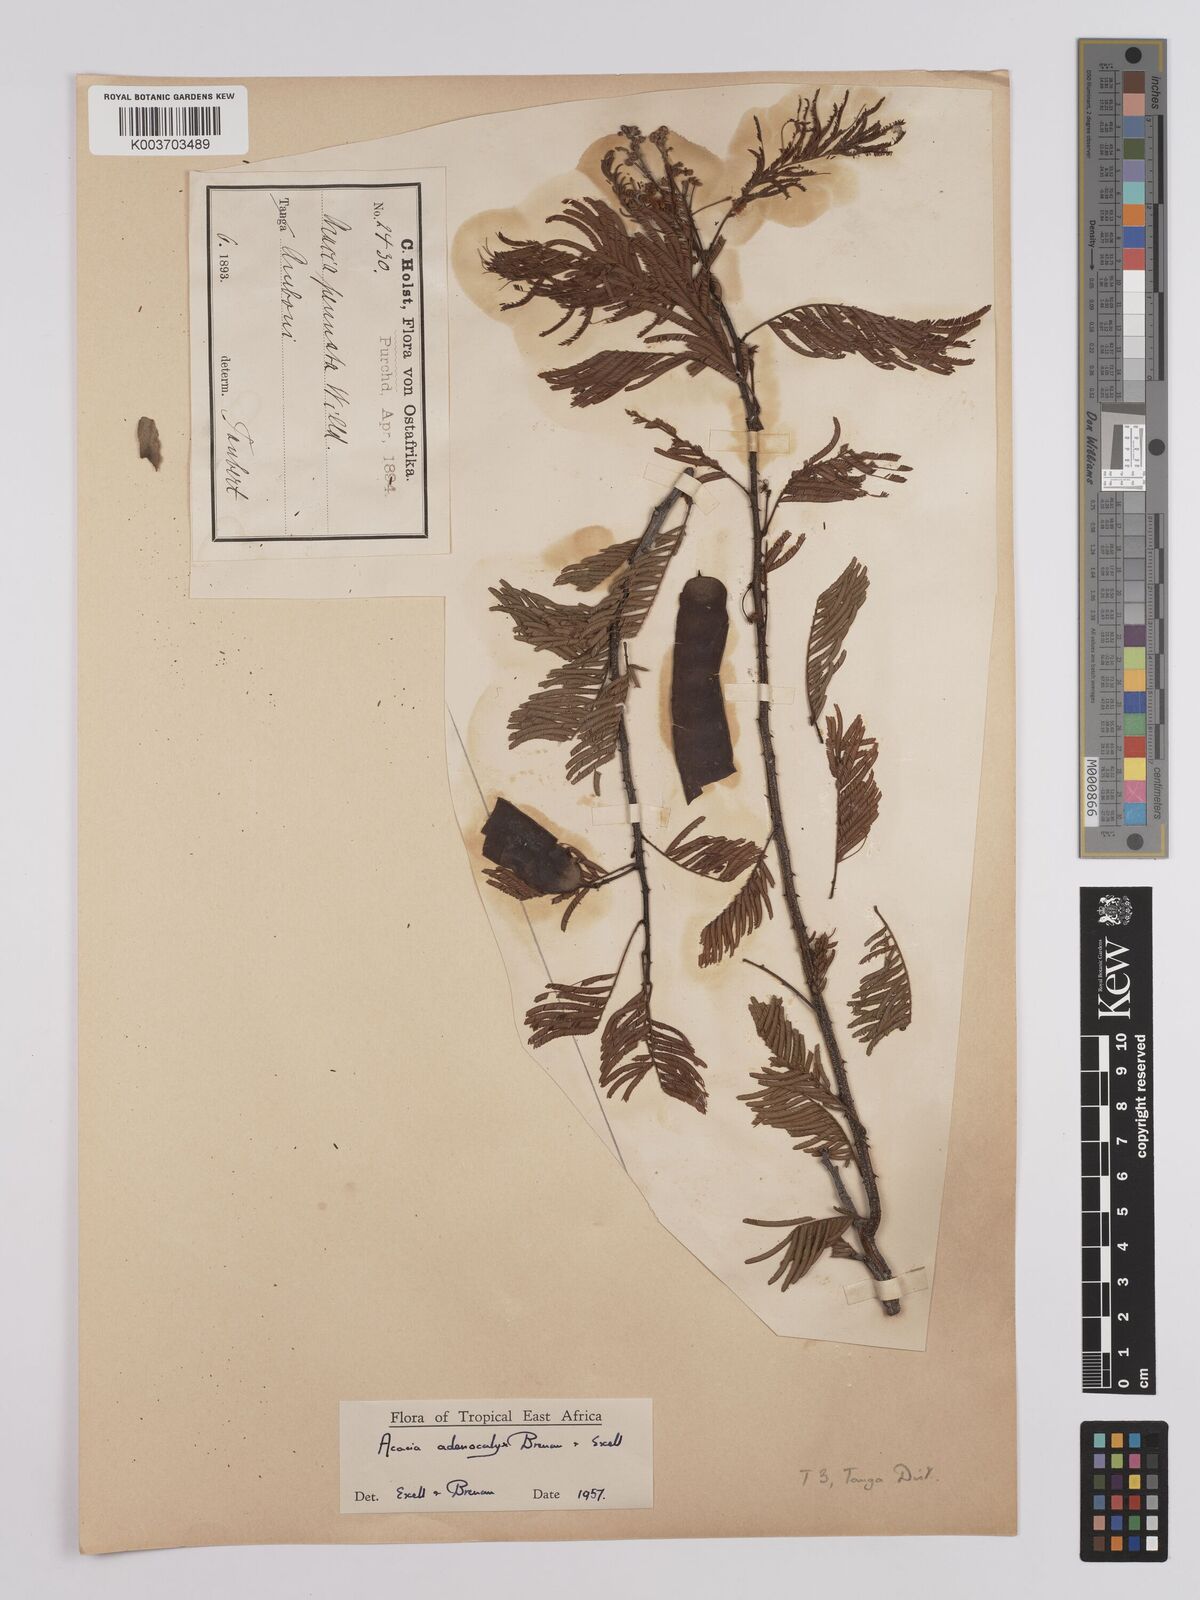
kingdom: Plantae
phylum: Tracheophyta
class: Magnoliopsida
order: Fabales
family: Fabaceae
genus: Senegalia
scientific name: Senegalia adenocalyx
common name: Pfurura
